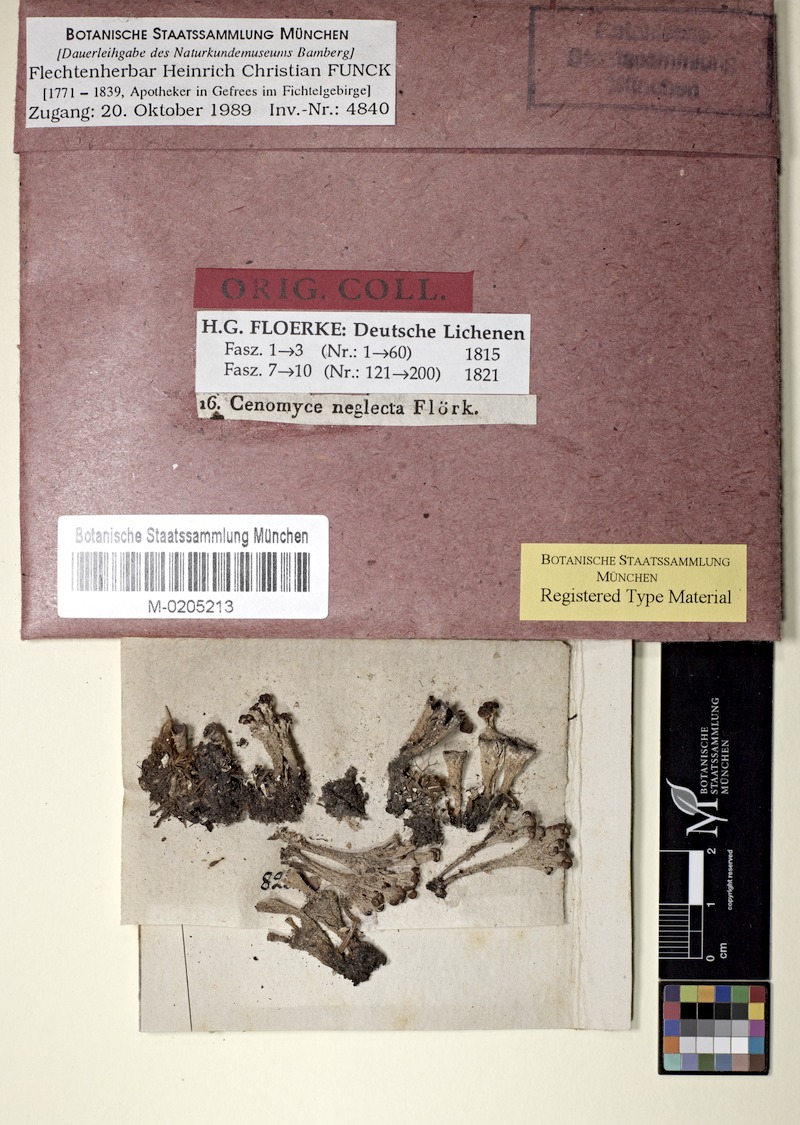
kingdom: Fungi
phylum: Ascomycota
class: Lecanoromycetes
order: Lecanorales
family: Cladoniaceae
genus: Cladonia
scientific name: Cladonia pyxidata
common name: Pebbled pixie cup
